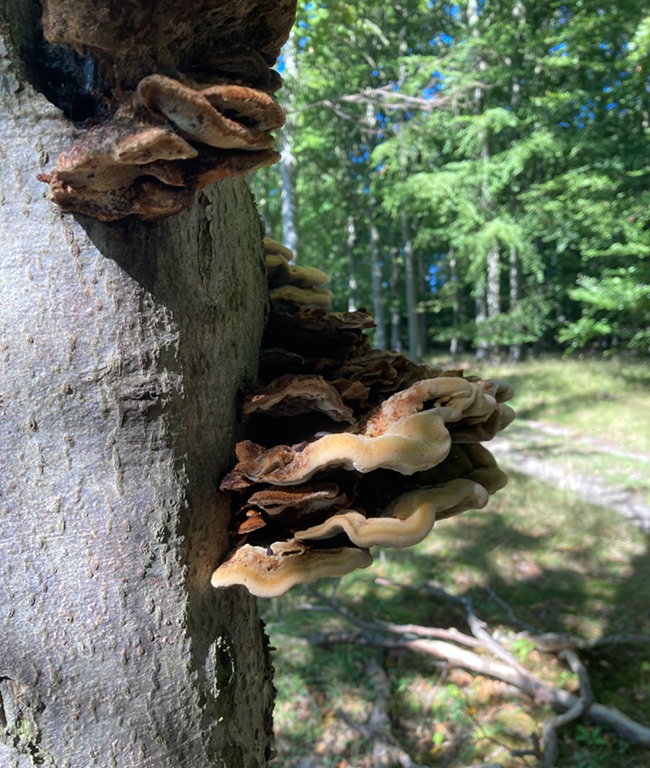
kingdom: Fungi
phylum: Basidiomycota
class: Agaricomycetes
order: Hymenochaetales
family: Hymenochaetaceae
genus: Inonotus
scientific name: Inonotus cuticularis
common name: kroghåret spejlporesvamp
